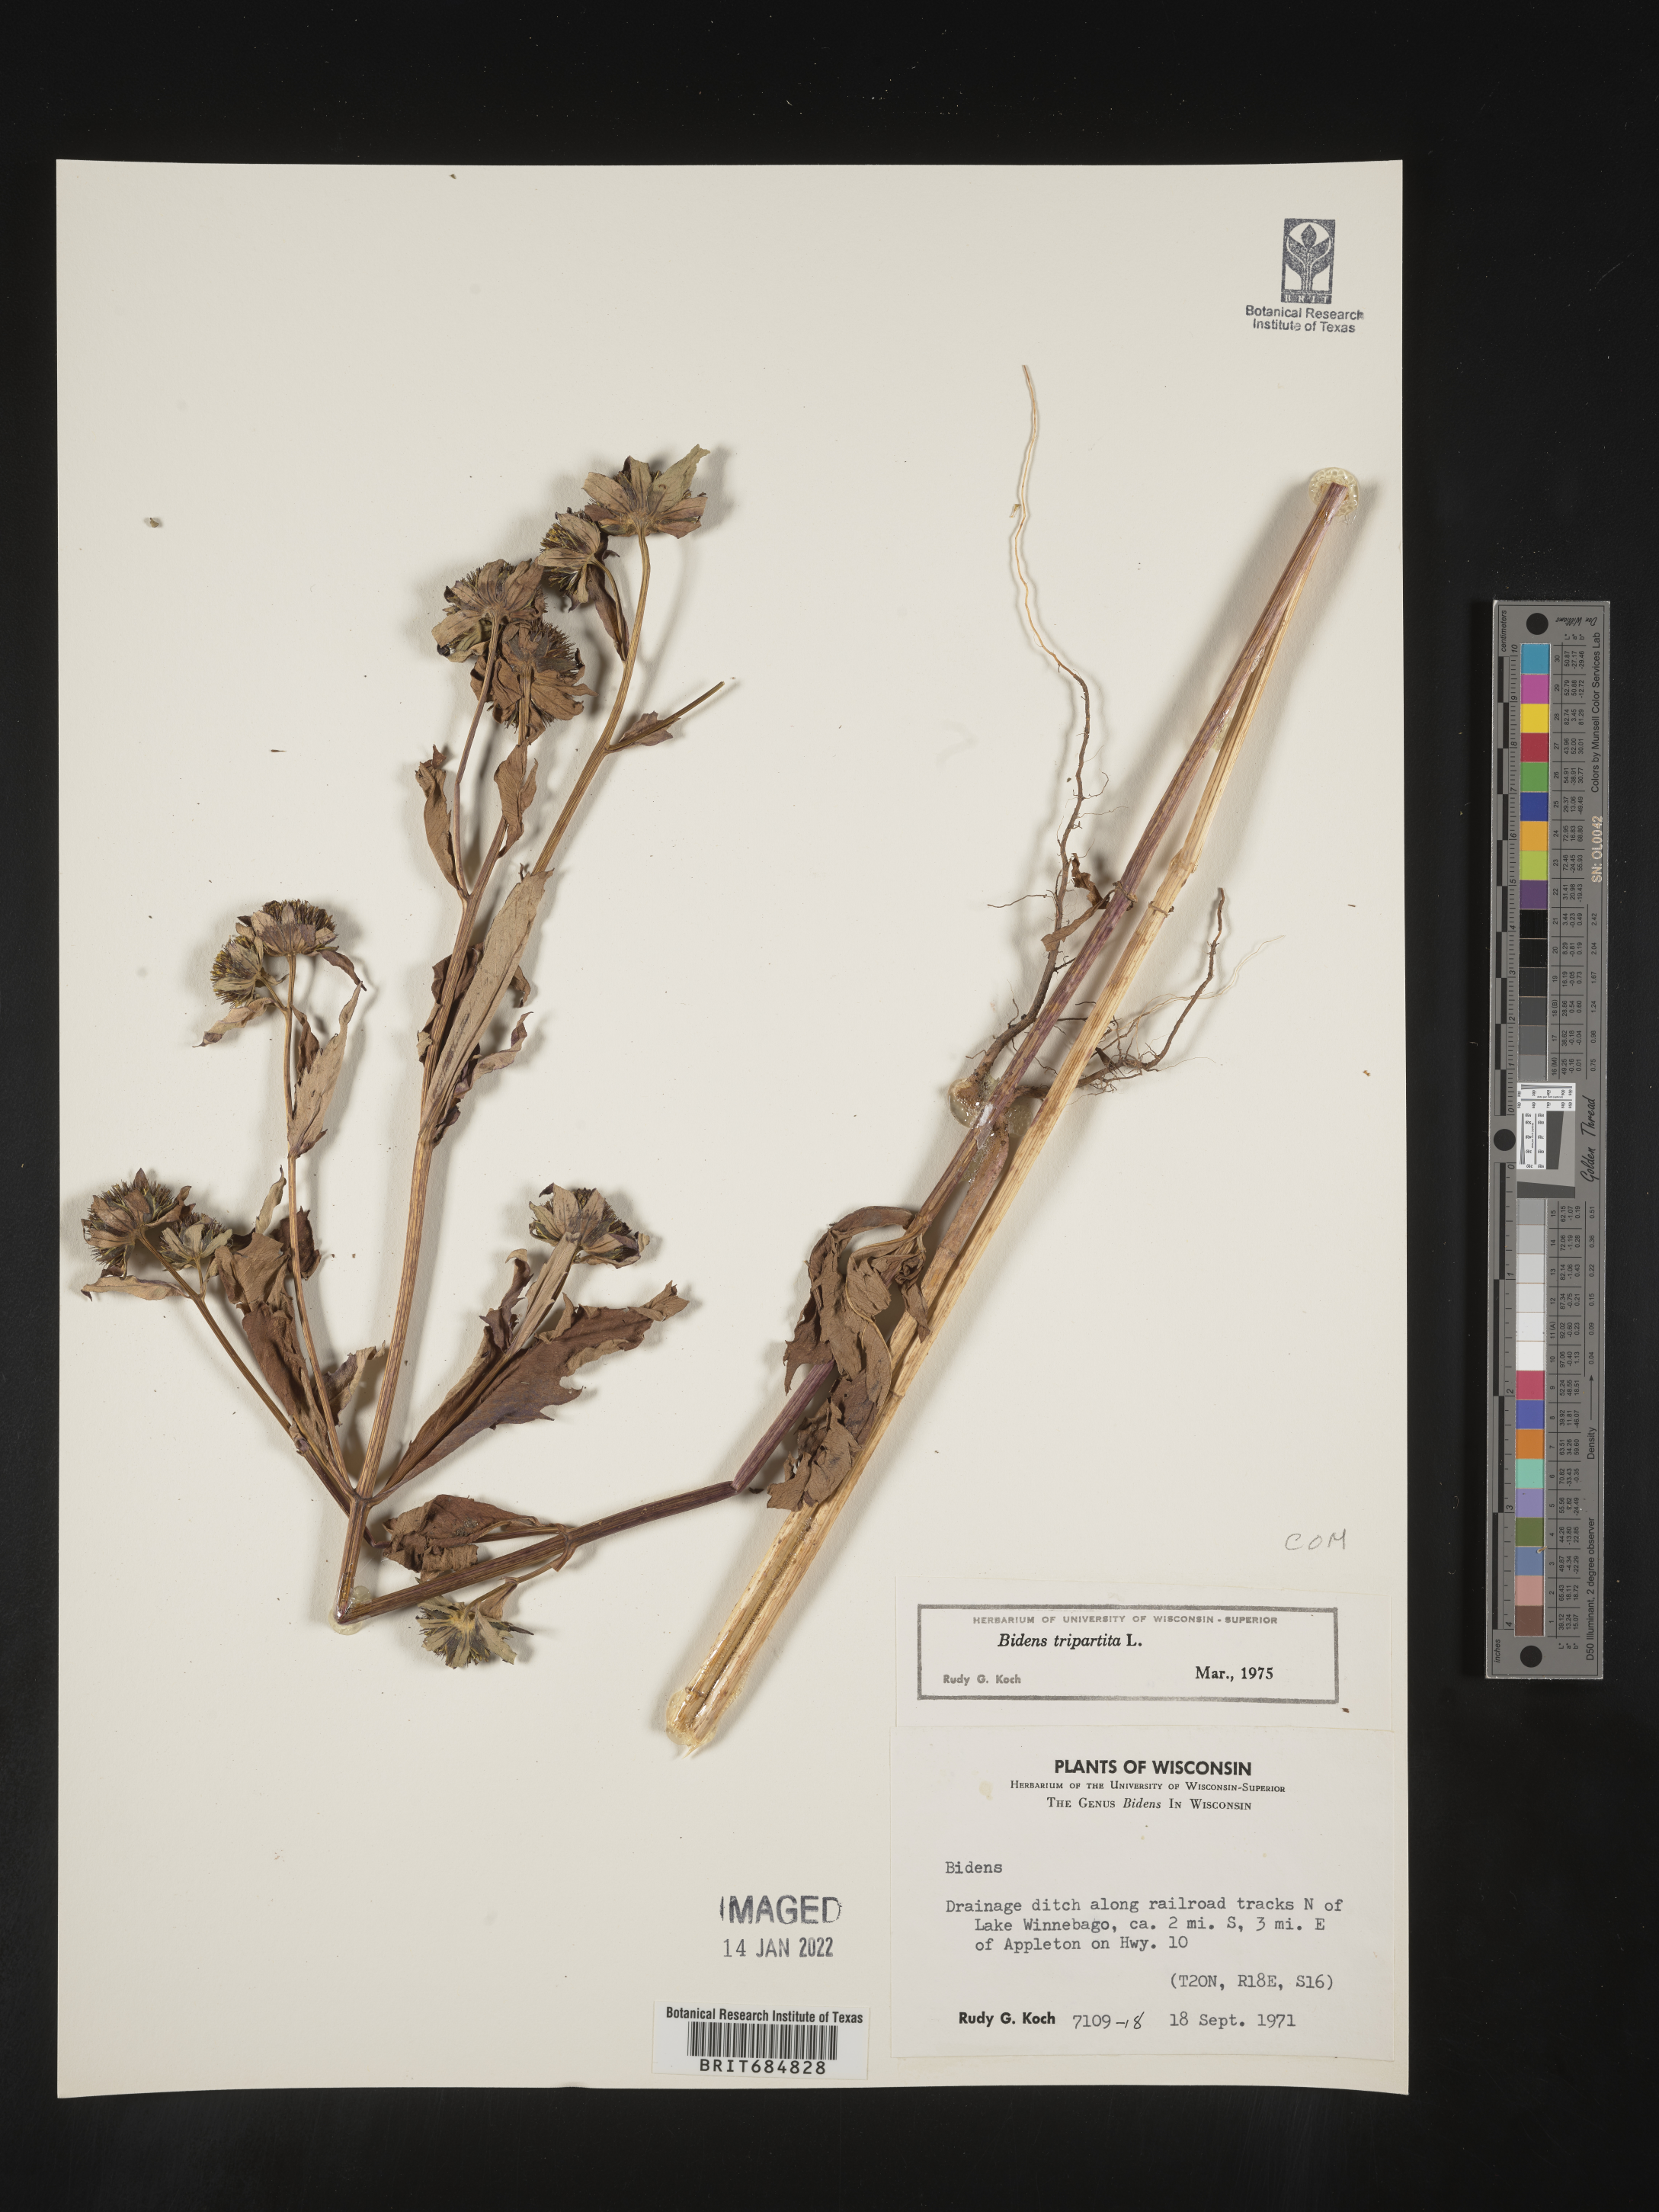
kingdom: Plantae
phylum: Tracheophyta
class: Magnoliopsida
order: Asterales
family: Asteraceae
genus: Bidens
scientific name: Bidens tripartita
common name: Trifid bur-marigold
